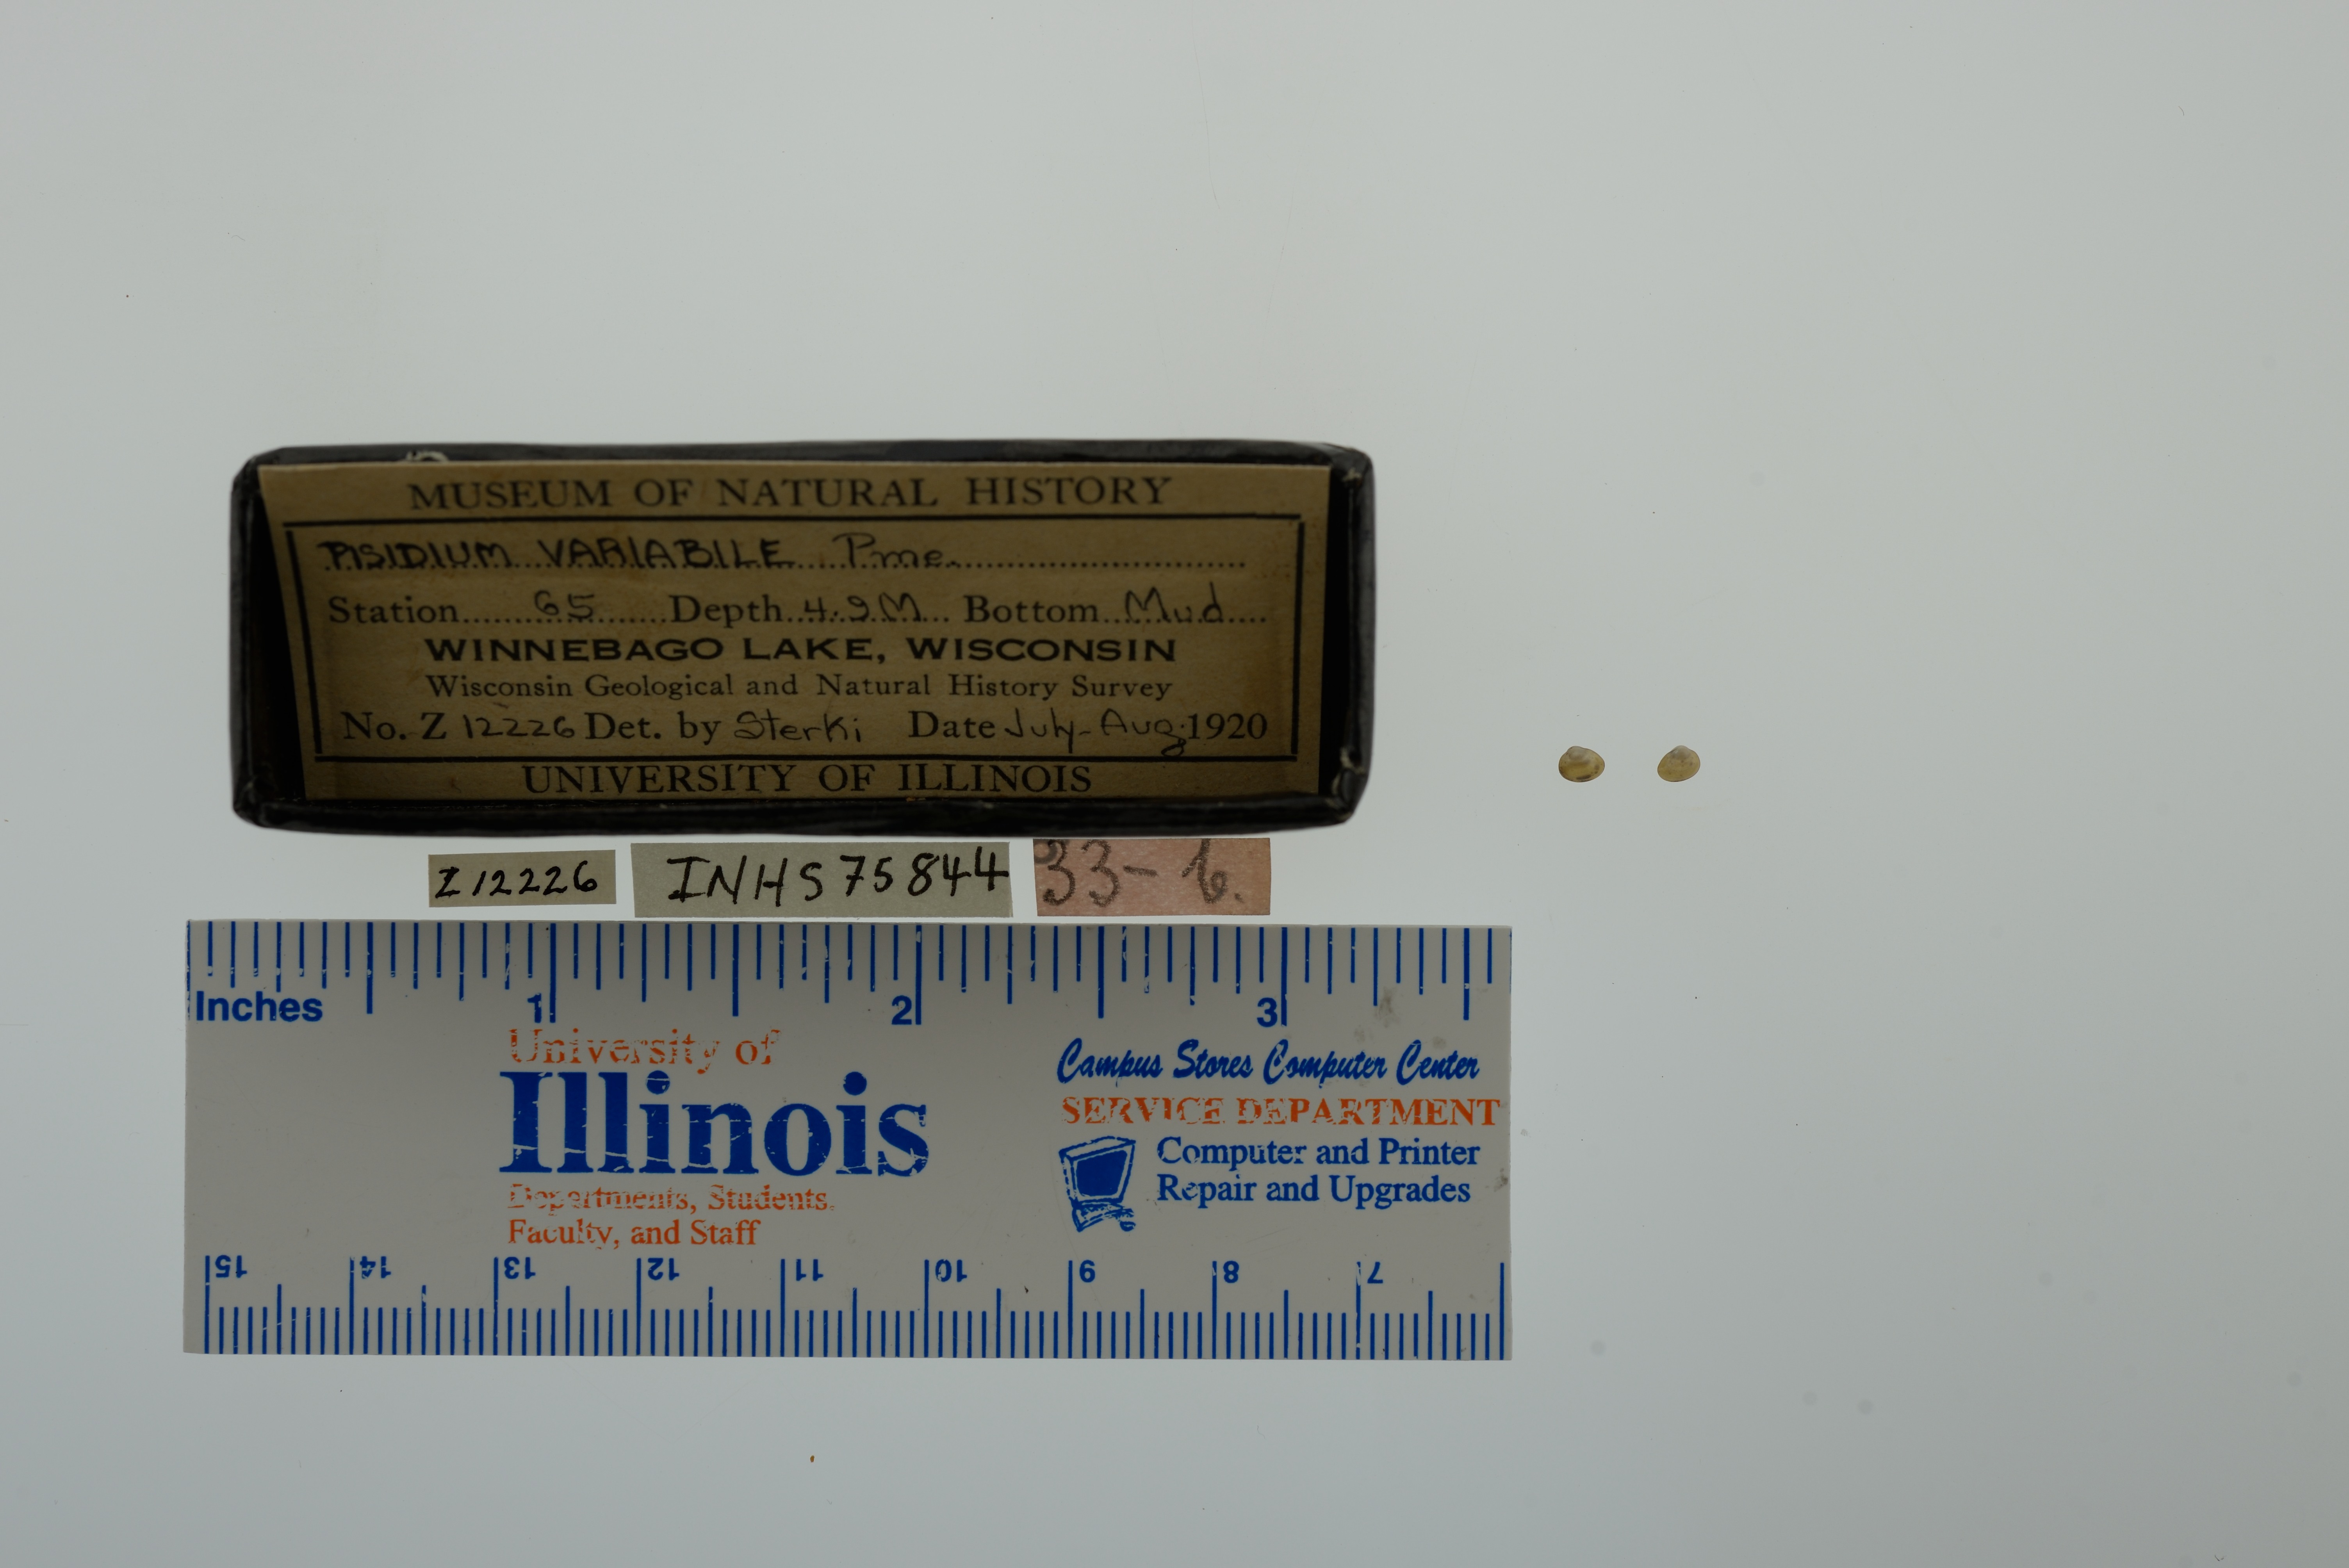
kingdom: Animalia
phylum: Mollusca
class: Bivalvia
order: Sphaeriida
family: Sphaeriidae
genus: Euglesa
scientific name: Euglesa variabilis
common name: Triangular peaclam
